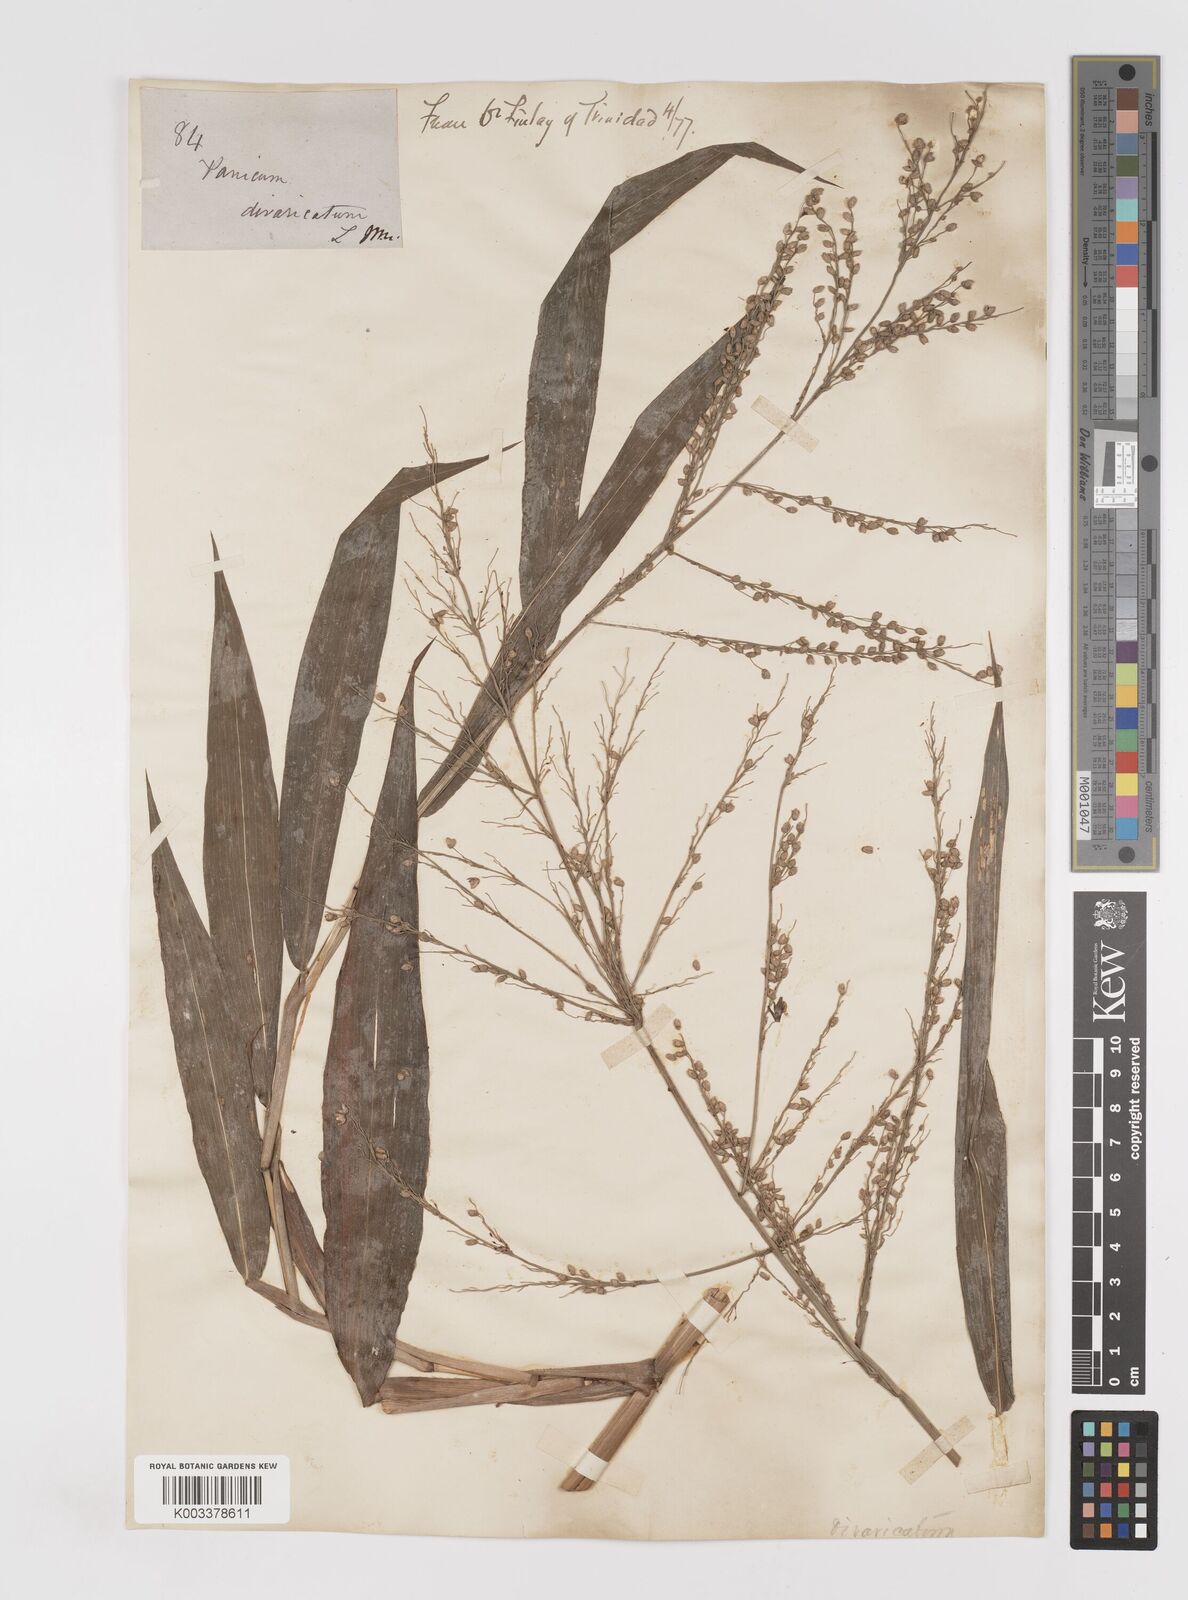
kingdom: Plantae
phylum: Tracheophyta
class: Liliopsida
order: Poales
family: Poaceae
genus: Lasiacis
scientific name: Lasiacis maculata
